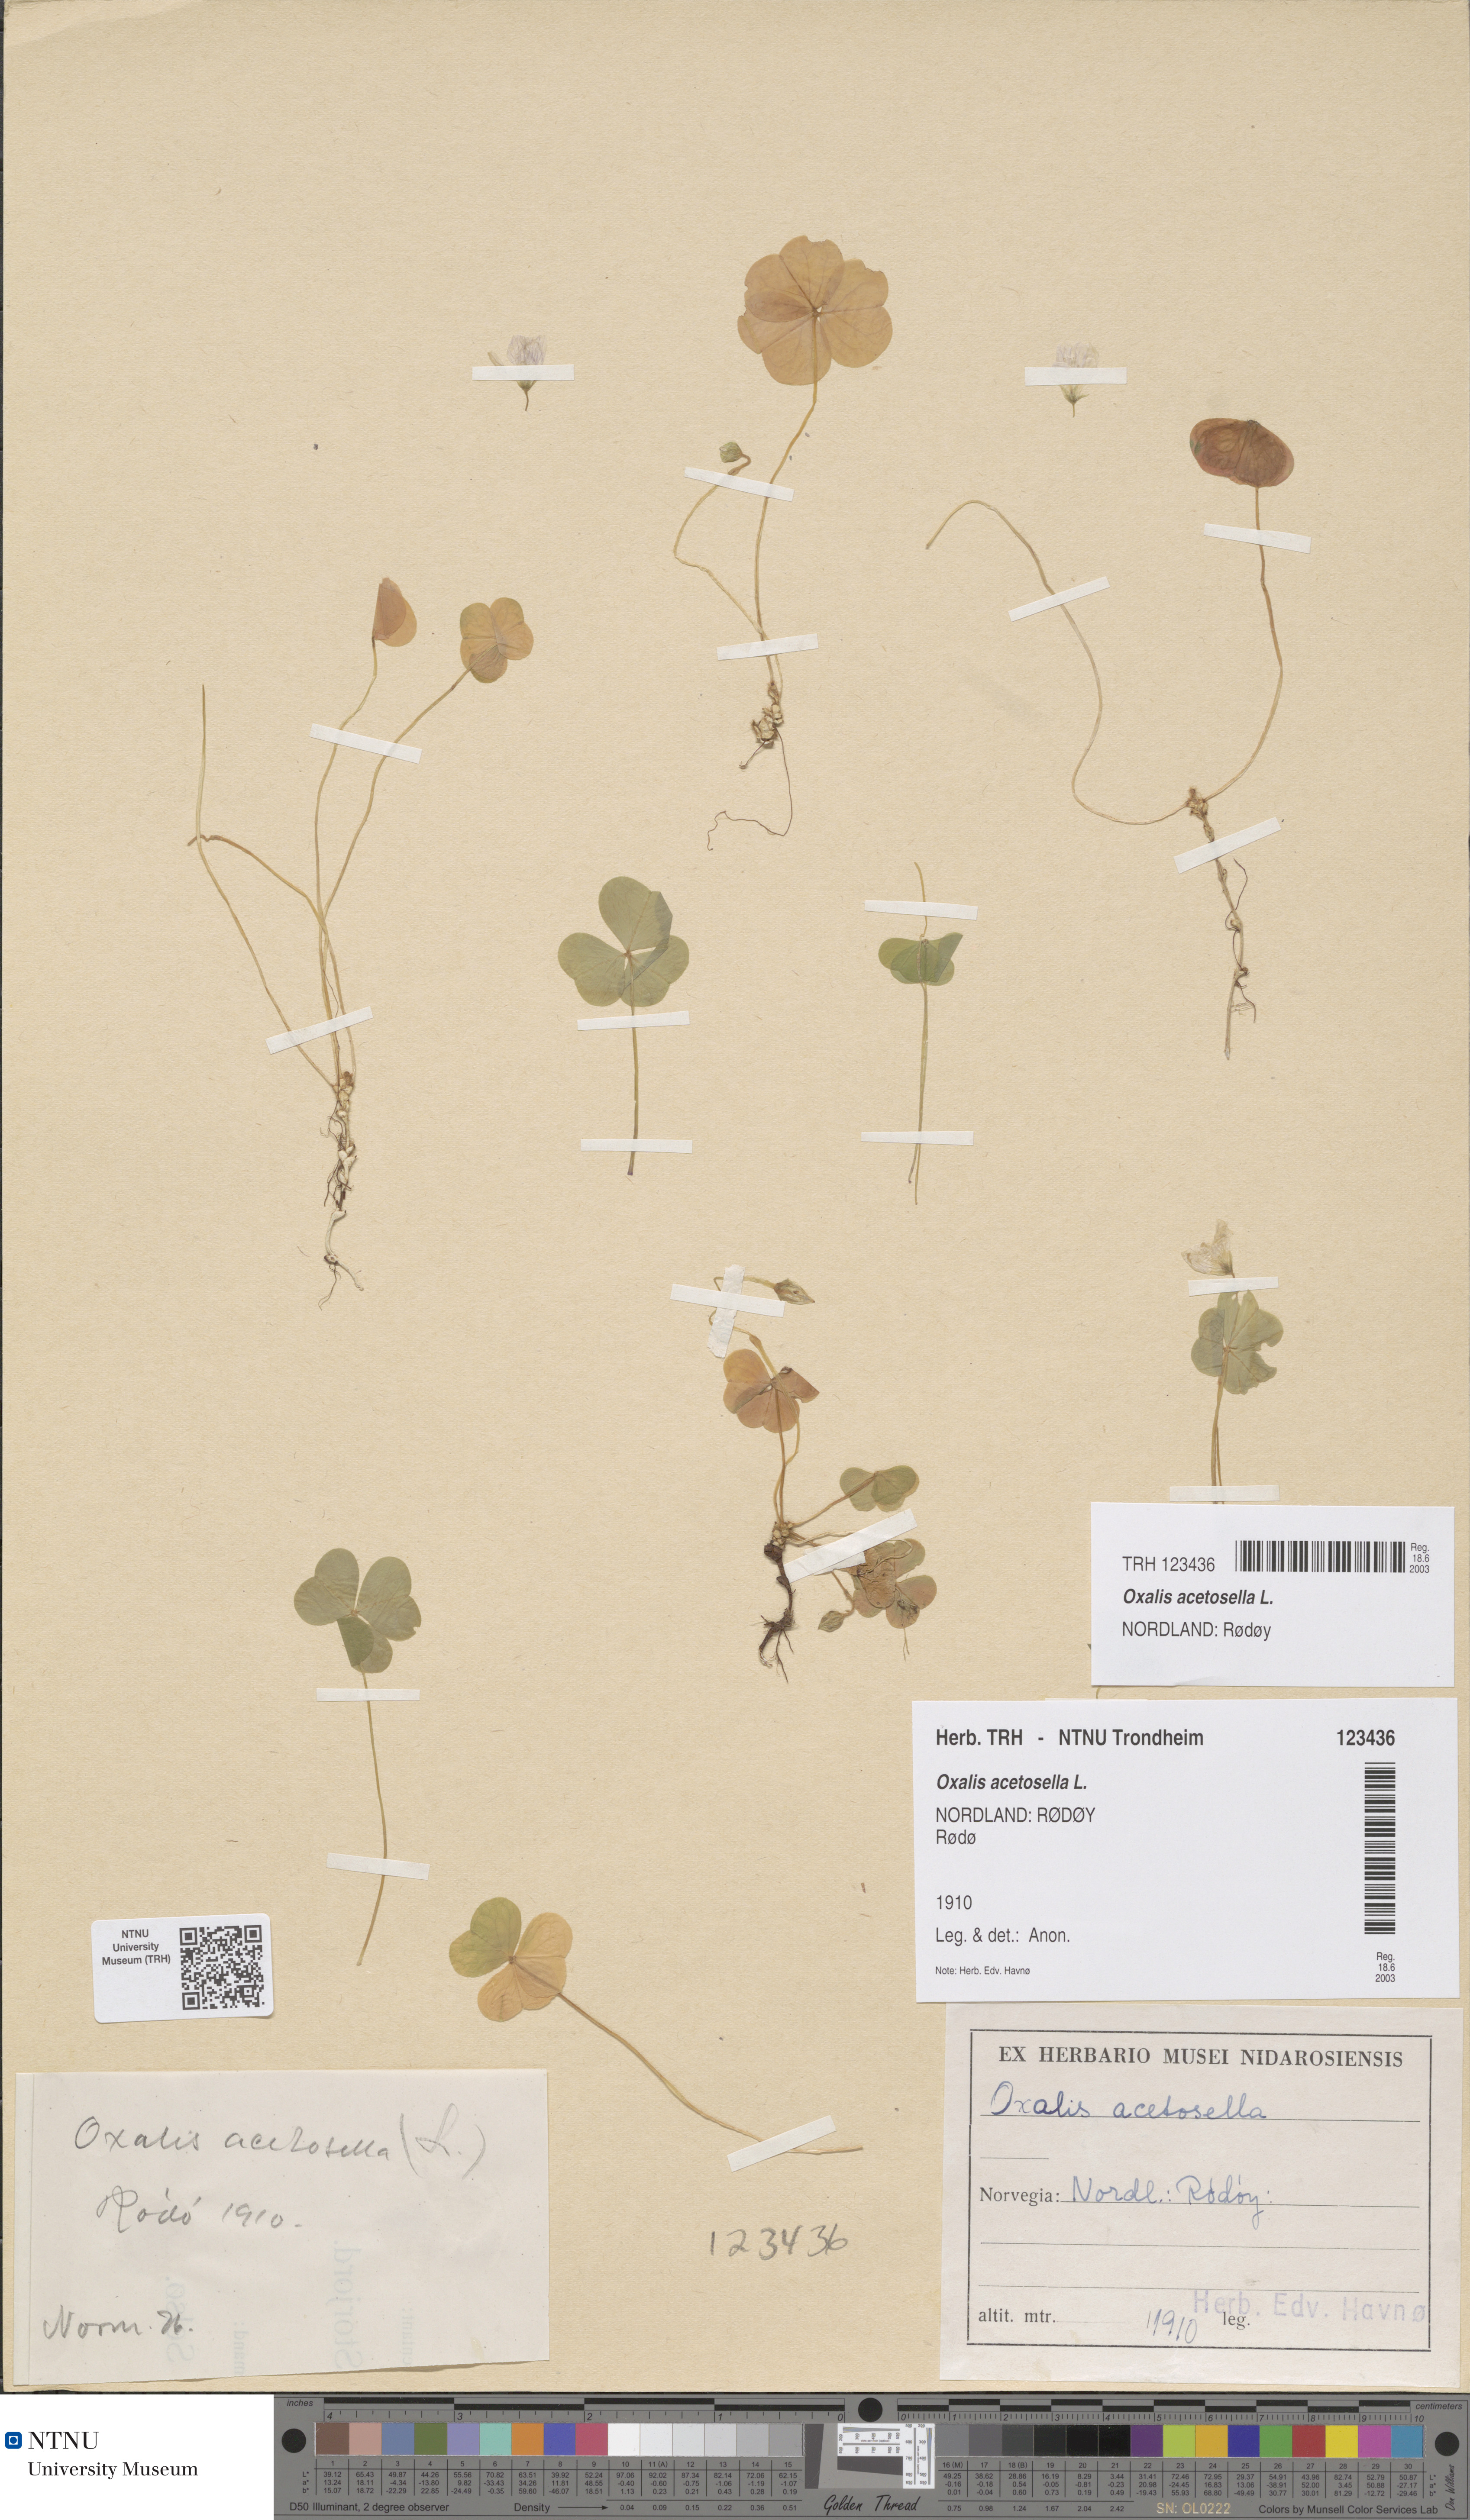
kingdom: Plantae
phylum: Tracheophyta
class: Magnoliopsida
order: Oxalidales
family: Oxalidaceae
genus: Oxalis
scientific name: Oxalis acetosella
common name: Wood-sorrel
